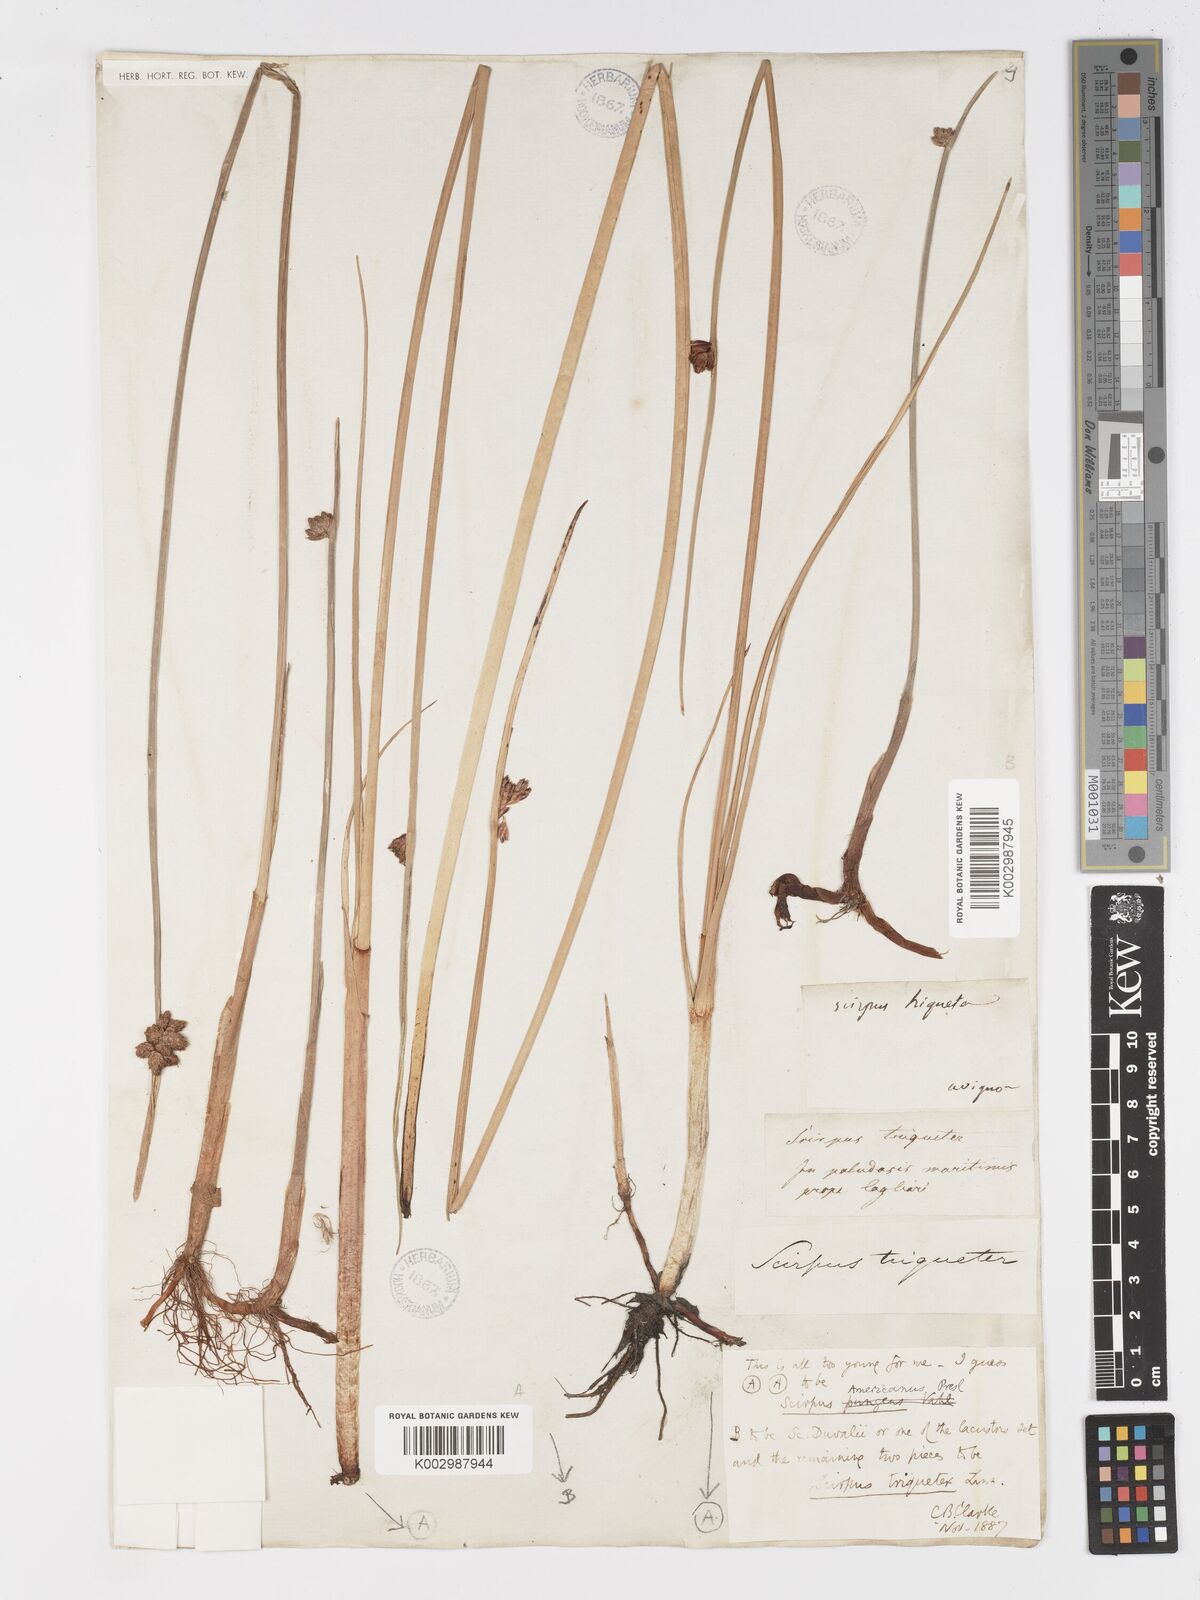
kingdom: Plantae
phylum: Tracheophyta
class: Liliopsida
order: Poales
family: Cyperaceae
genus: Schoenoplectus
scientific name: Schoenoplectus triqueter
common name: Triangular club-rush
